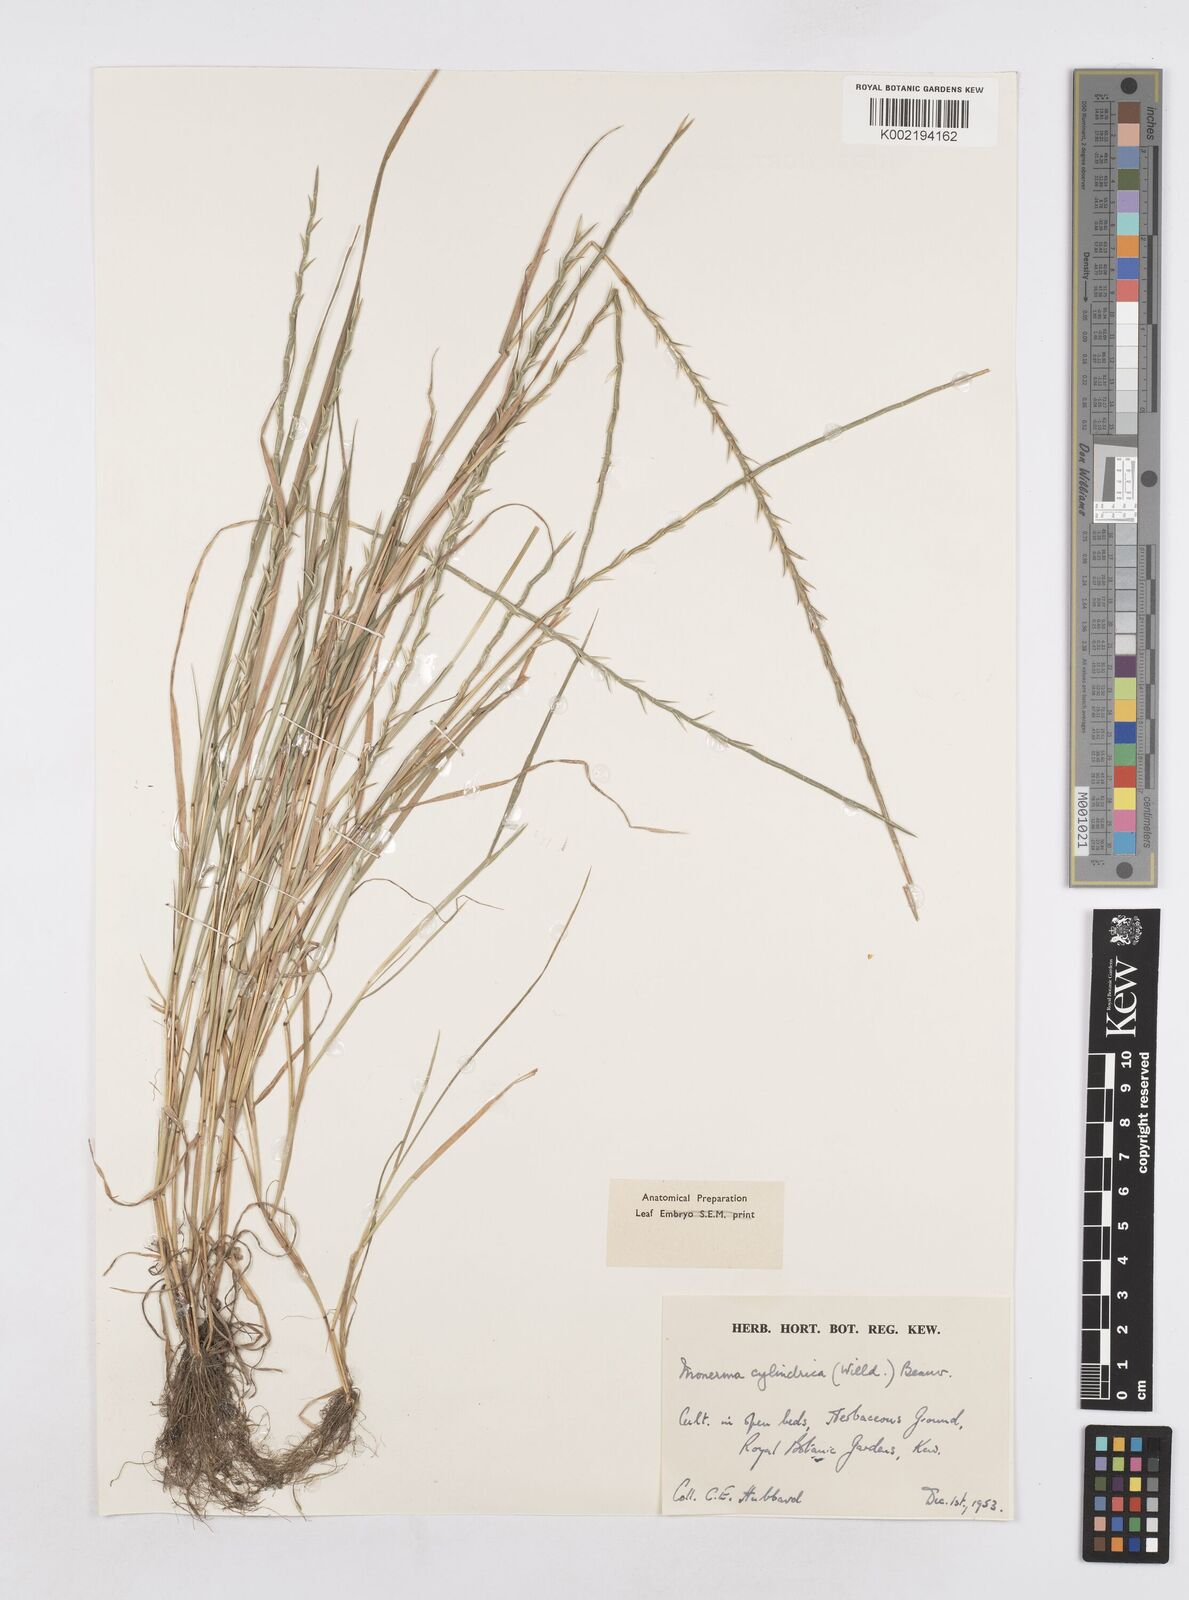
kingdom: Plantae
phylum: Tracheophyta
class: Liliopsida
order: Poales
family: Poaceae
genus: Parapholis
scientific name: Parapholis cylindrica
